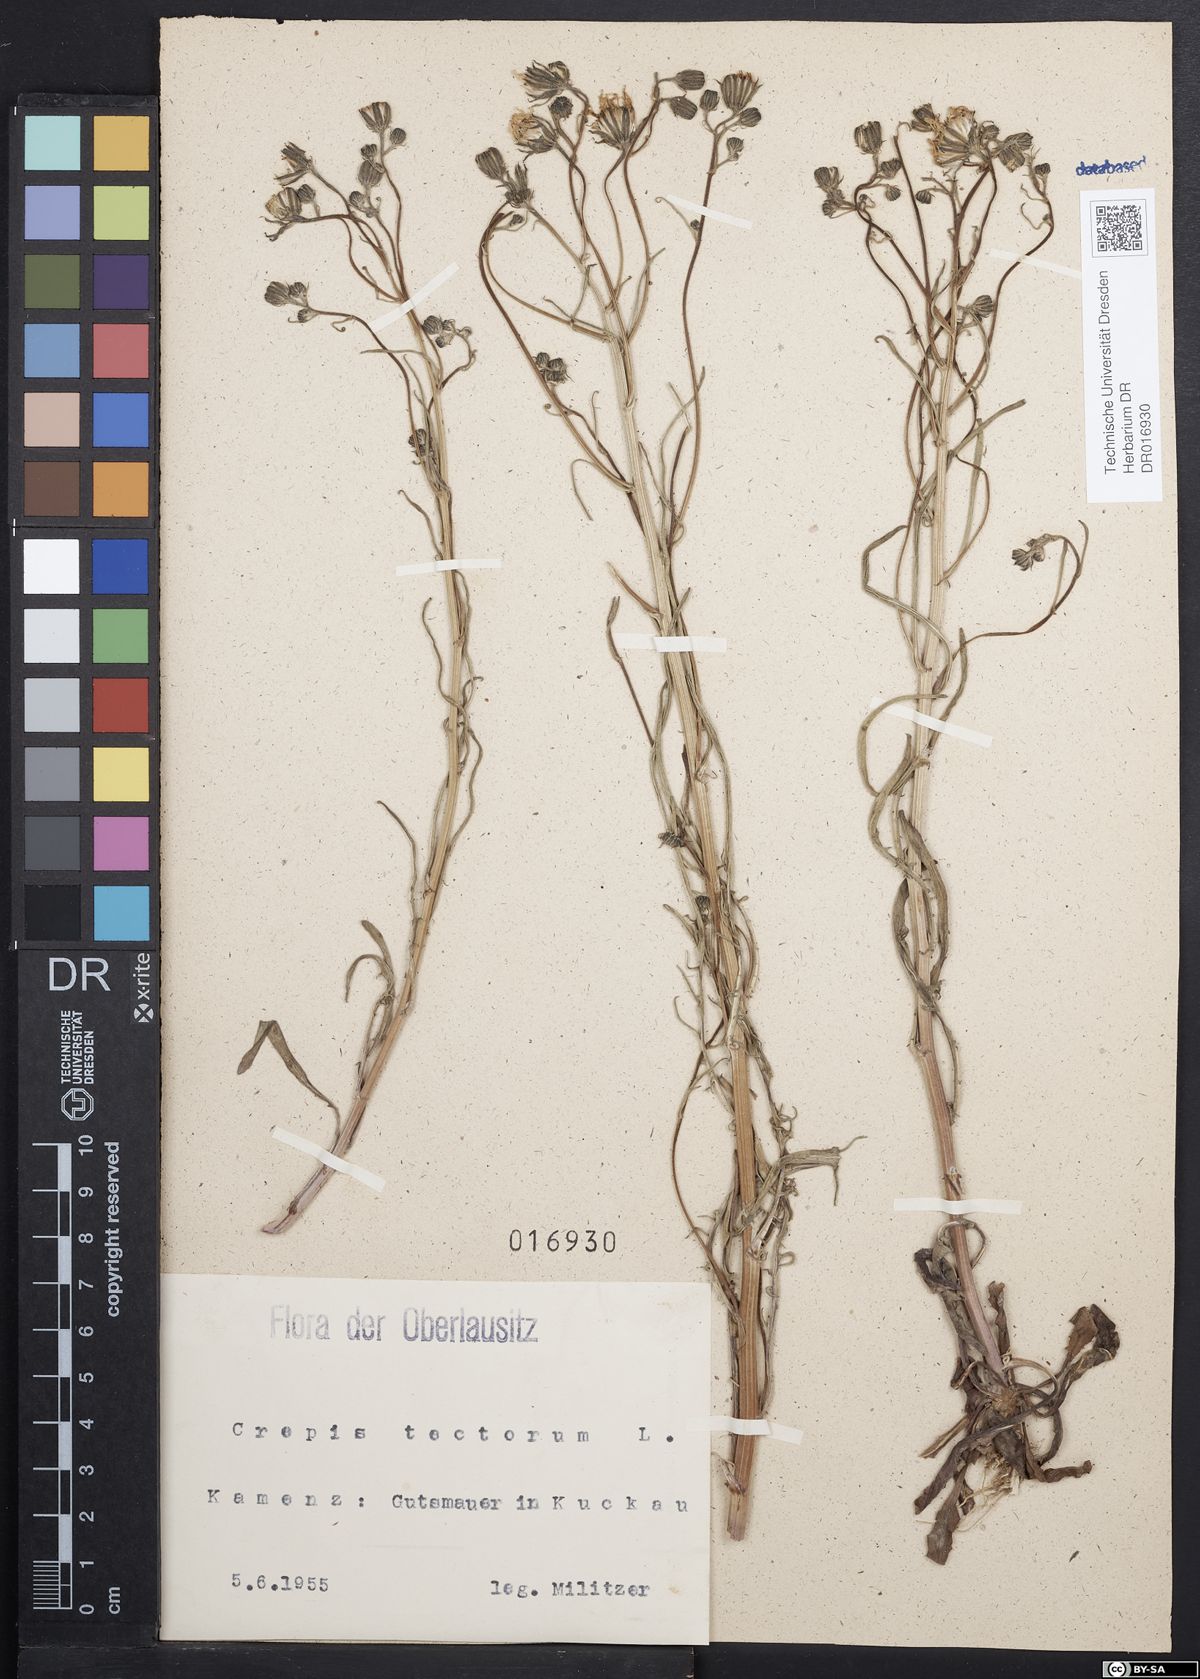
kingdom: Plantae
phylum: Tracheophyta
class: Magnoliopsida
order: Asterales
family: Asteraceae
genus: Crepis
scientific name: Crepis tectorum
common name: Narrow-leaved hawk's-beard
